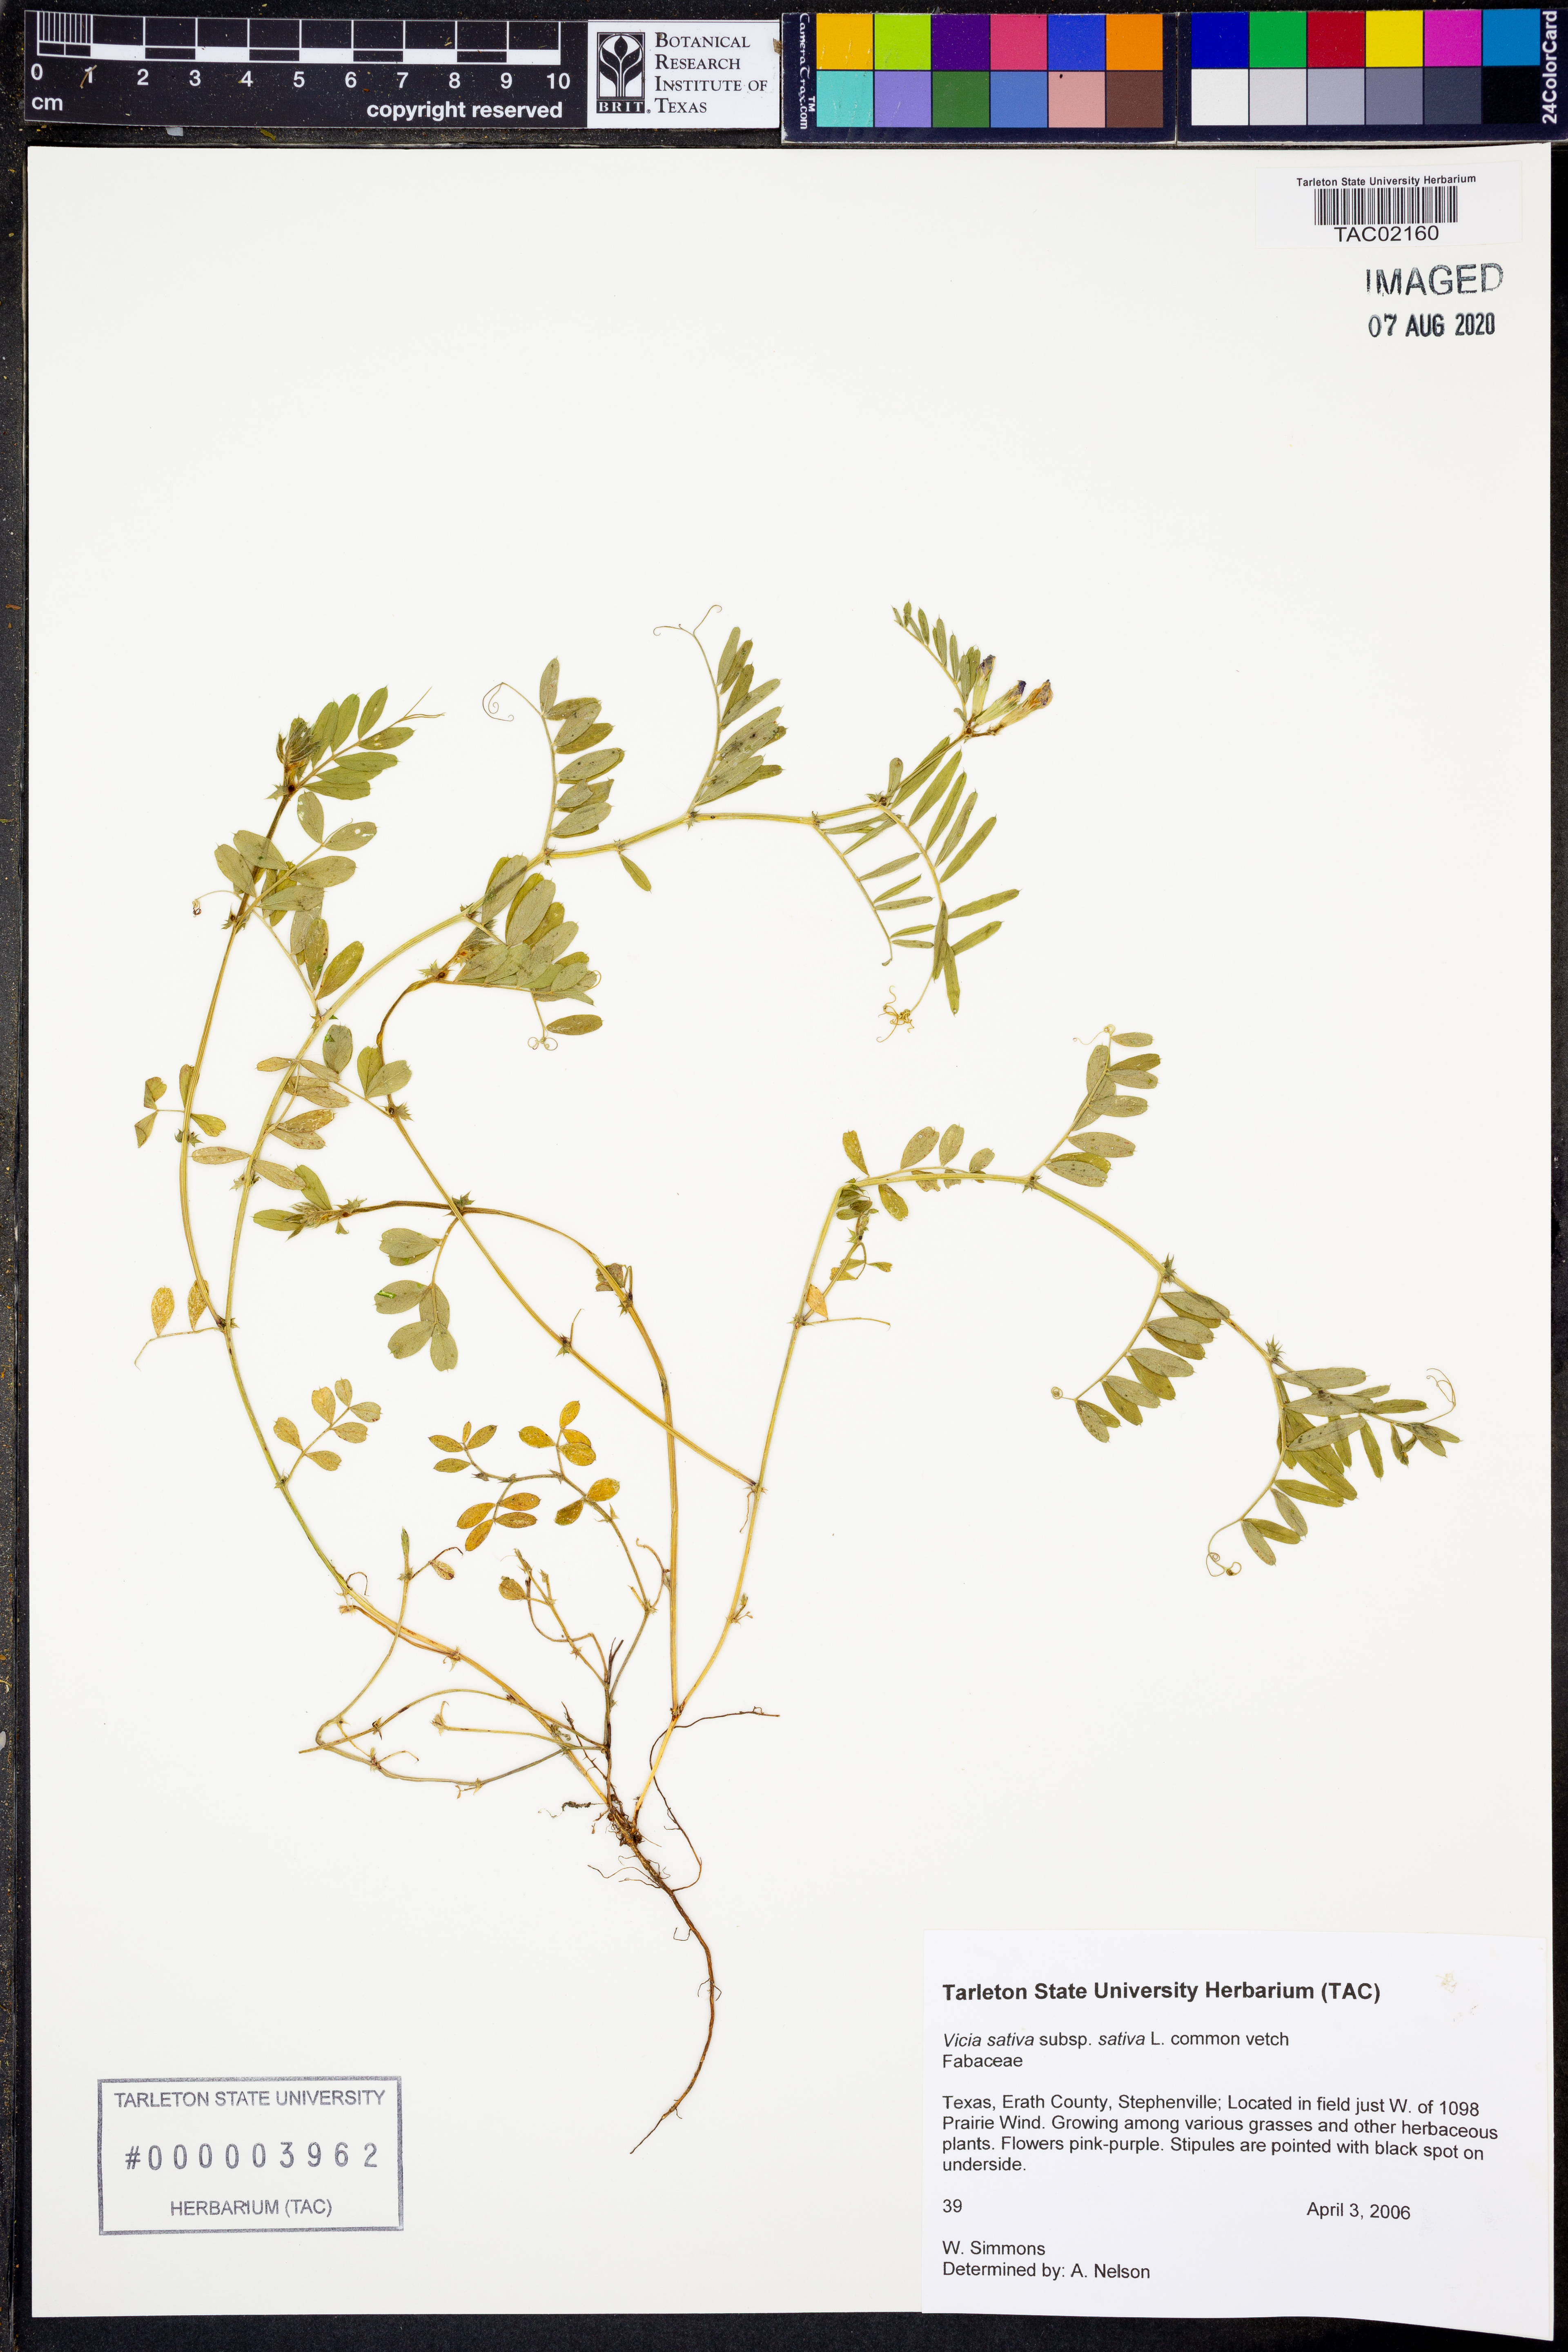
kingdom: Plantae
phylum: Tracheophyta
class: Magnoliopsida
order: Fabales
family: Fabaceae
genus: Vicia
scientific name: Vicia sativa
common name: Garden vetch
